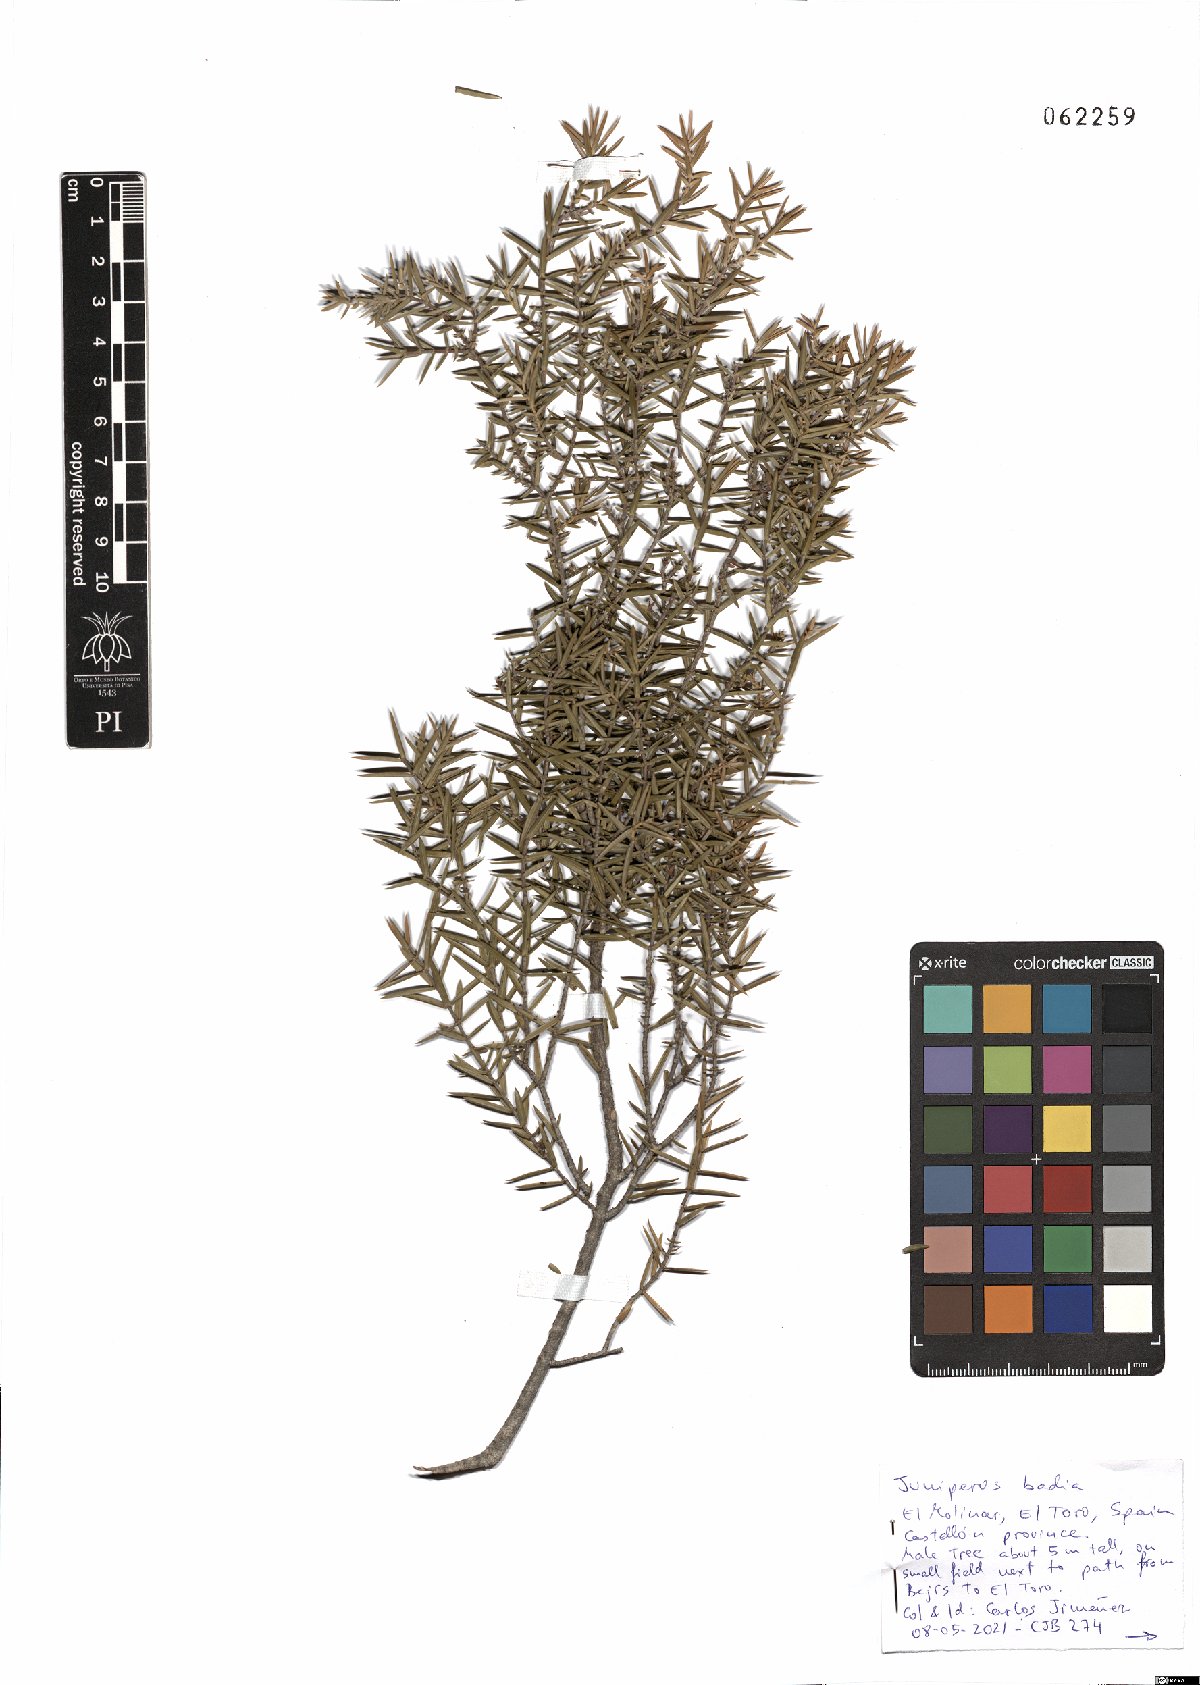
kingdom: Plantae
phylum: Tracheophyta
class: Pinopsida
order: Pinales
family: Cupressaceae
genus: Juniperus
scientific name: Juniperus oxycedrus
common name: Prickly juniper
